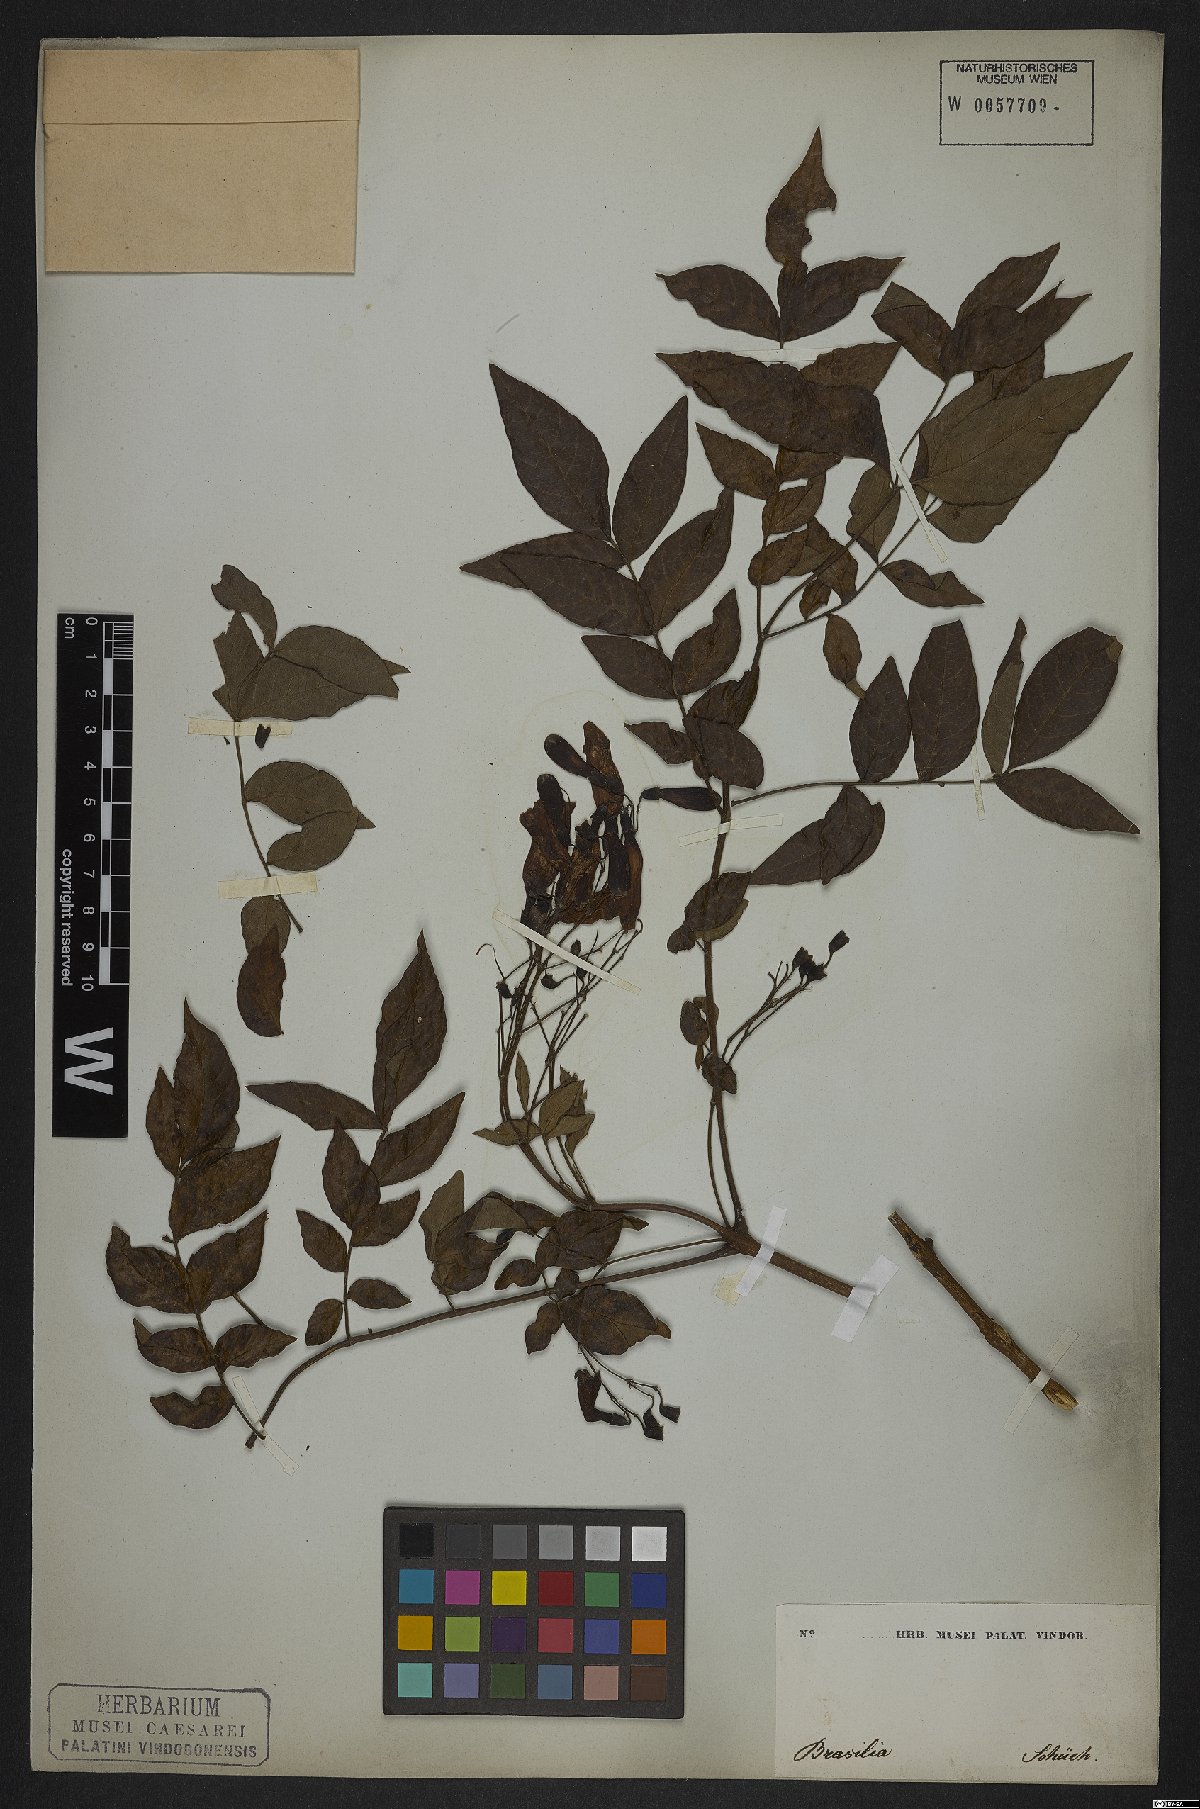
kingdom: Plantae
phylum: Tracheophyta
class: Magnoliopsida
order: Lamiales
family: Bignoniaceae
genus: Jacaranda
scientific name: Jacaranda jasminoides
